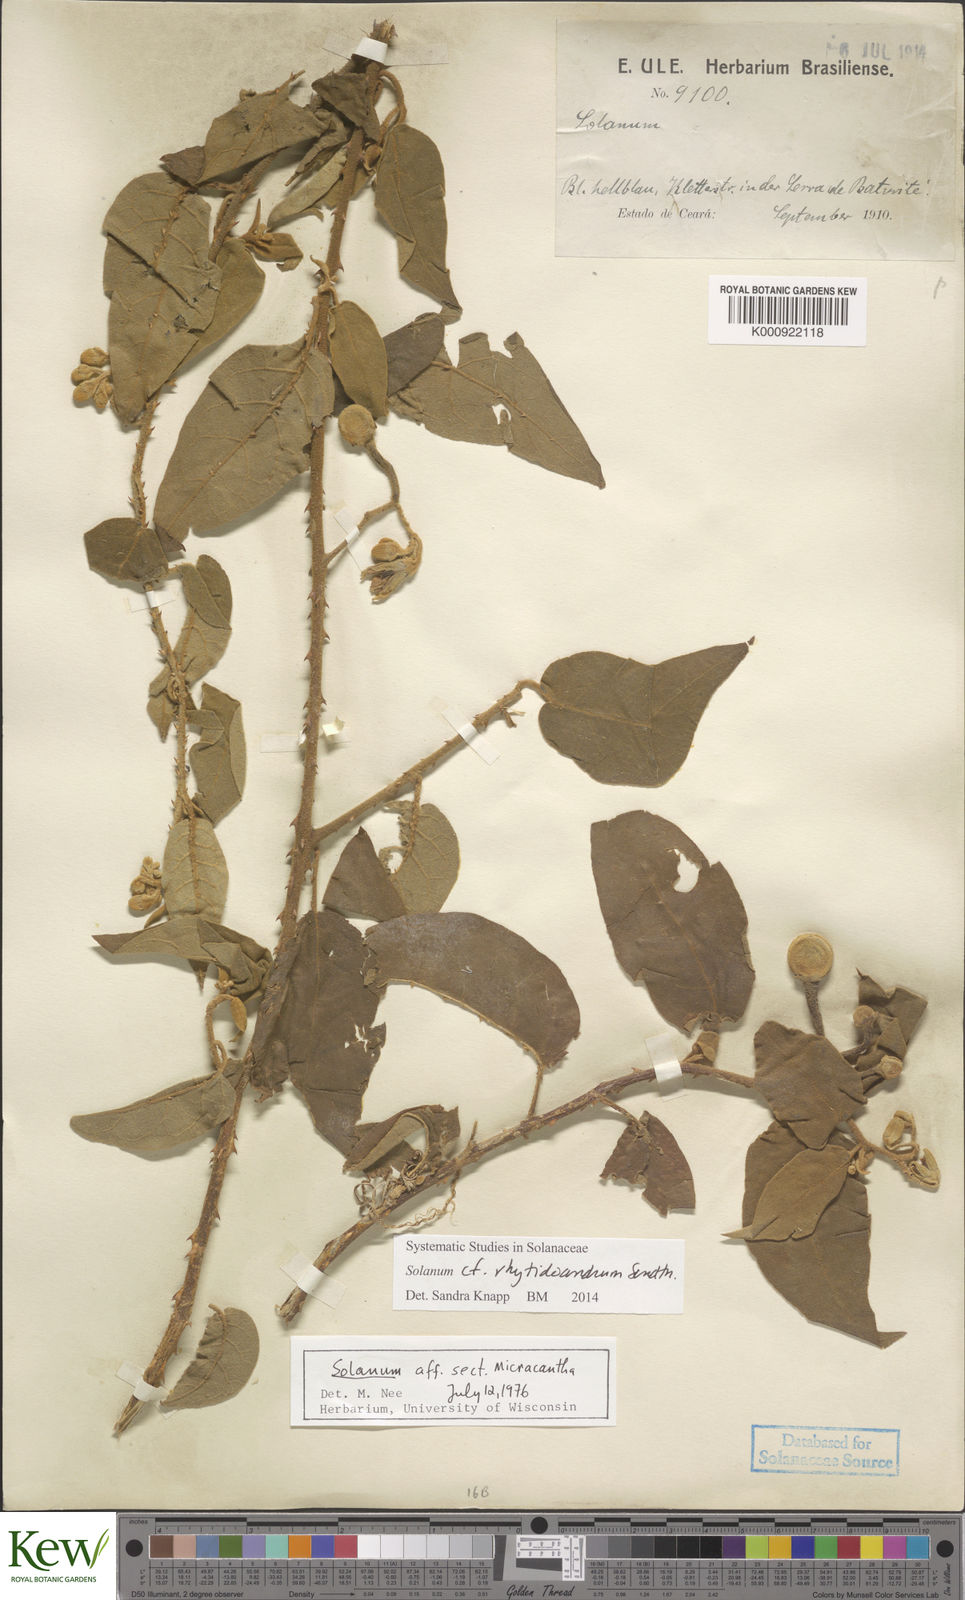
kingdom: Plantae
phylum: Tracheophyta
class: Magnoliopsida
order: Solanales
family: Solanaceae
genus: Solanum
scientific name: Solanum rhytidoandrum
